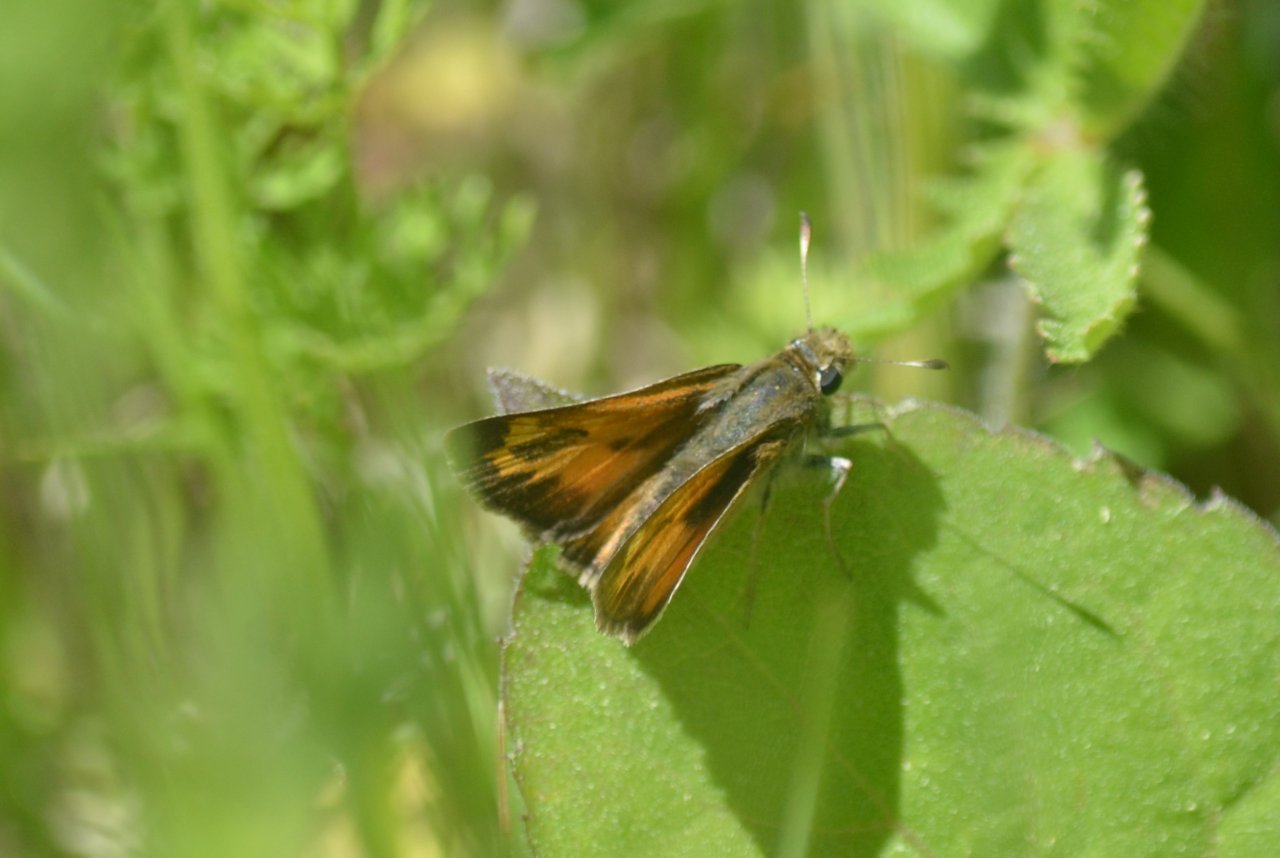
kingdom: Animalia
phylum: Arthropoda
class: Insecta
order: Lepidoptera
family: Hesperiidae
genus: Hesperia
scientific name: Hesperia sassacus
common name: Sassacus Skipper
